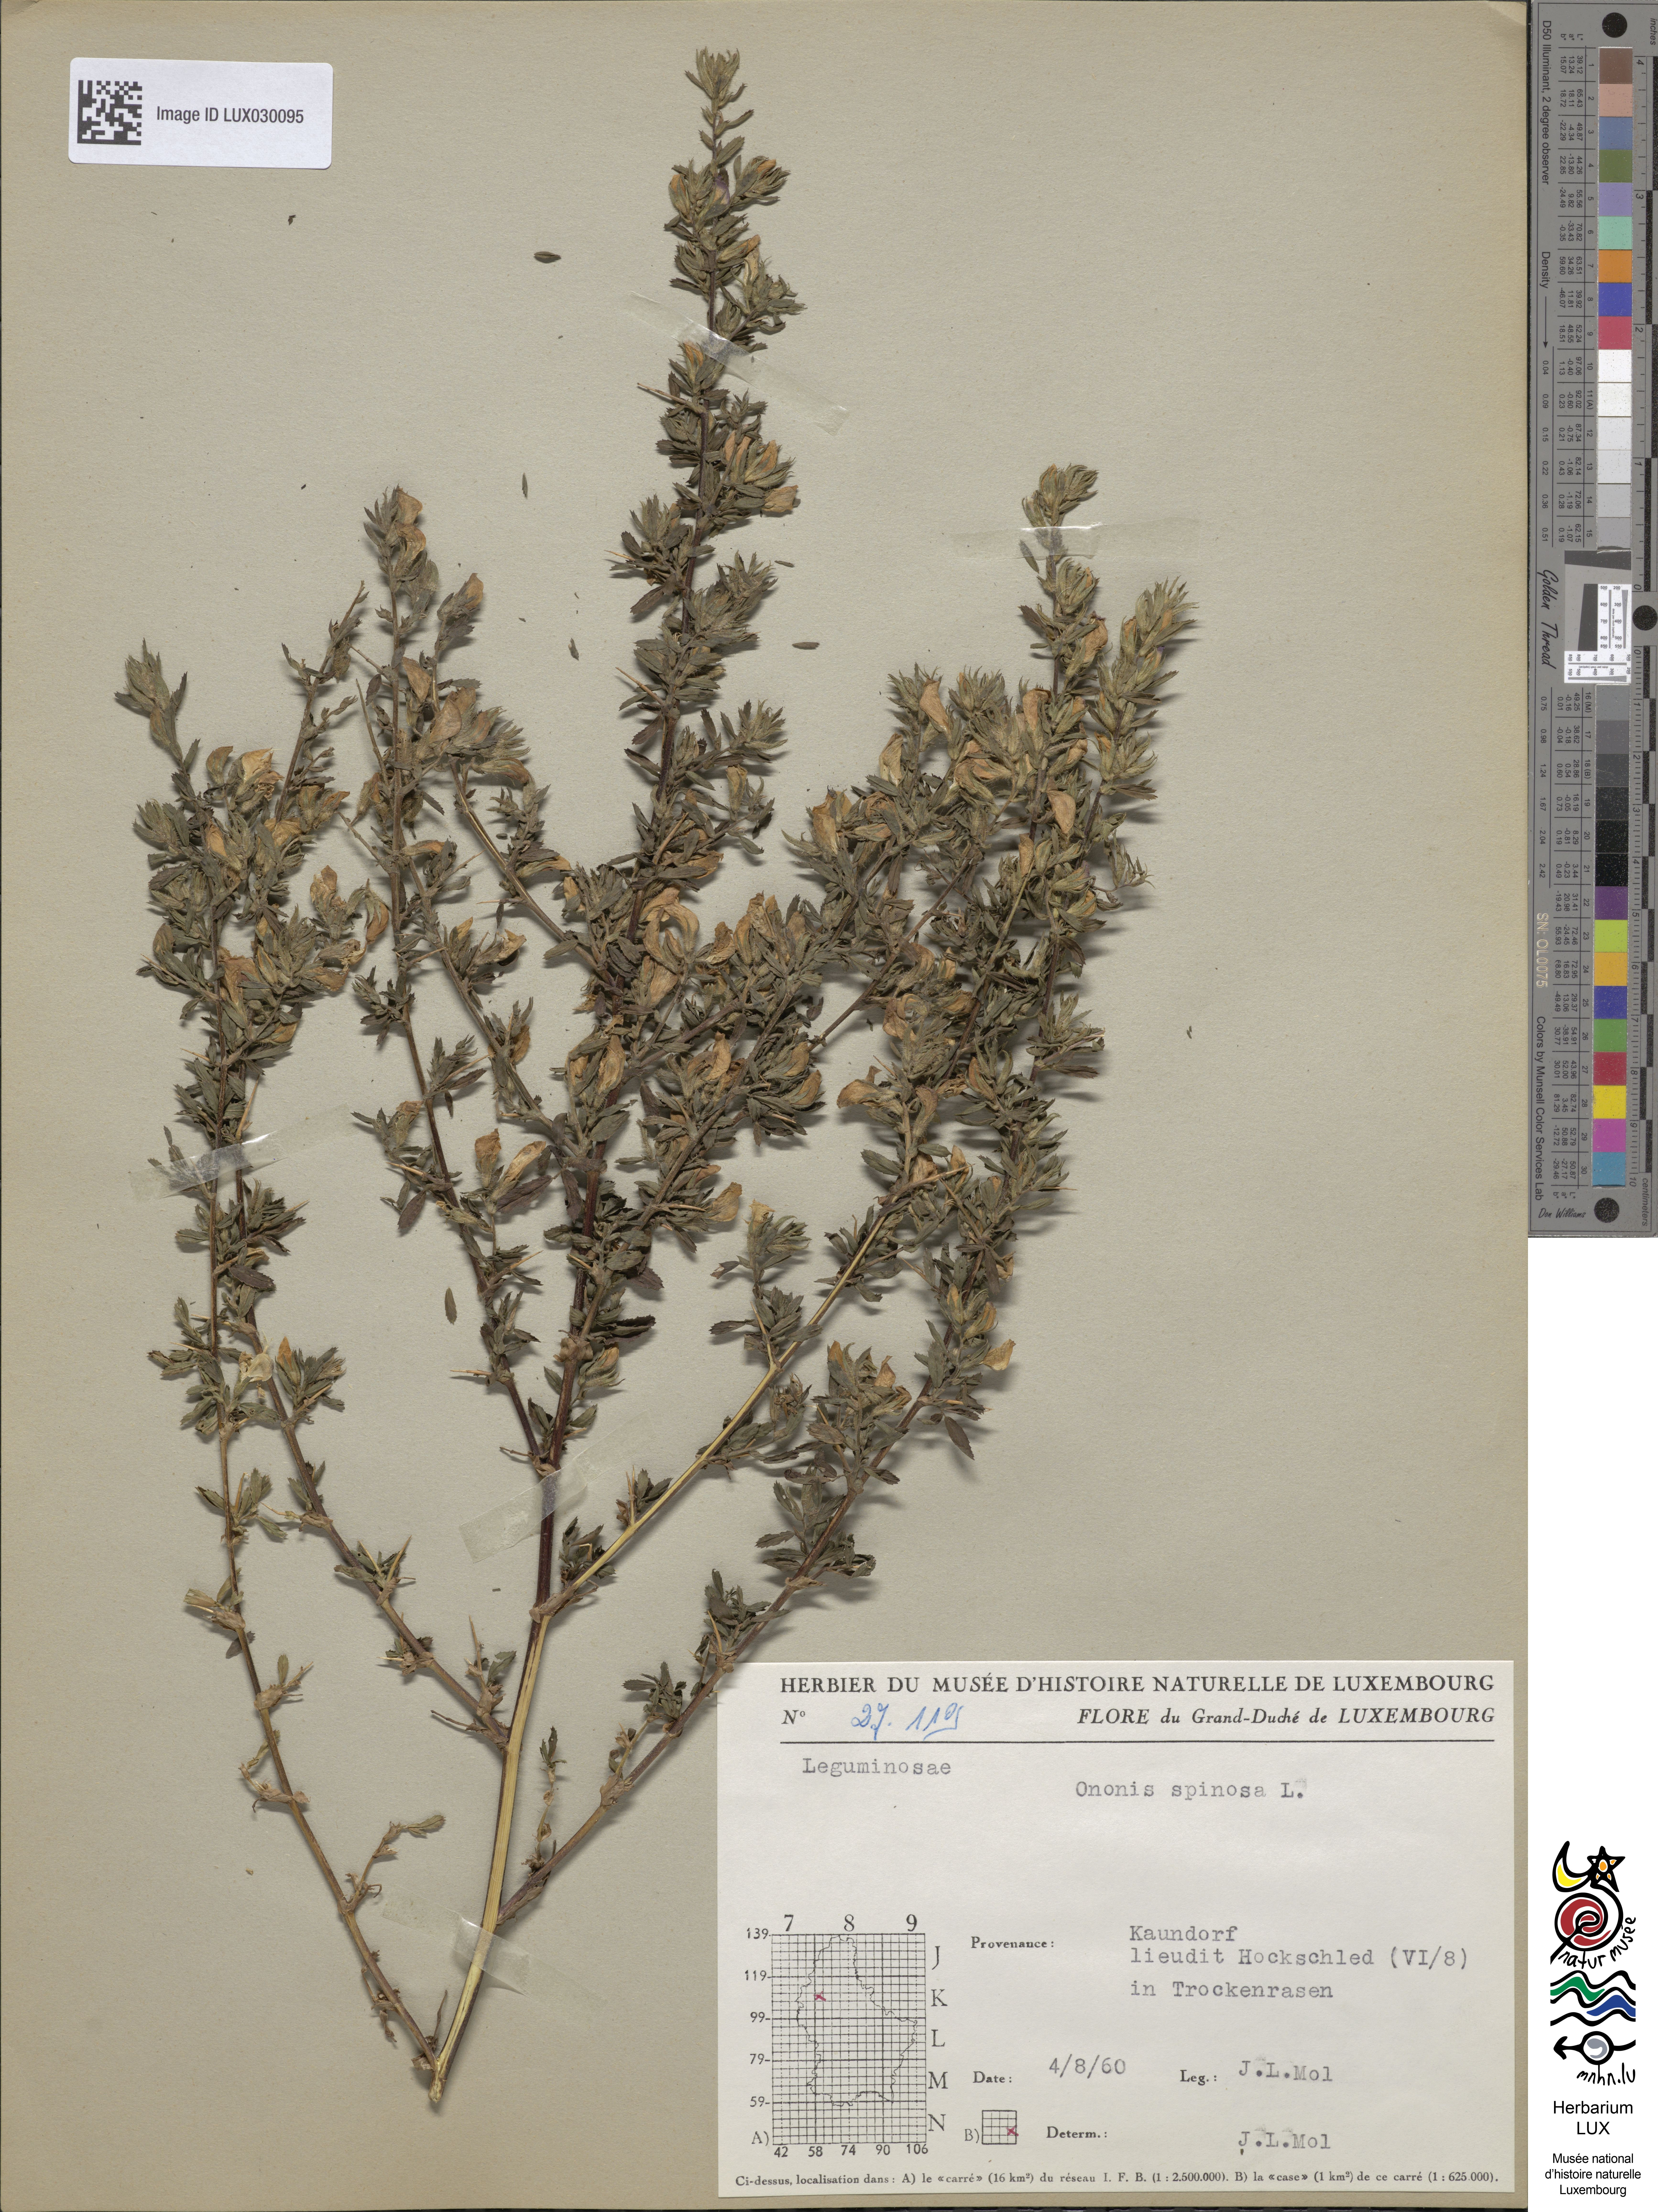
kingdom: Plantae
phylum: Tracheophyta
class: Magnoliopsida
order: Fabales
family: Fabaceae
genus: Ononis
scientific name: Ononis spinosa
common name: Spiny restharrow
